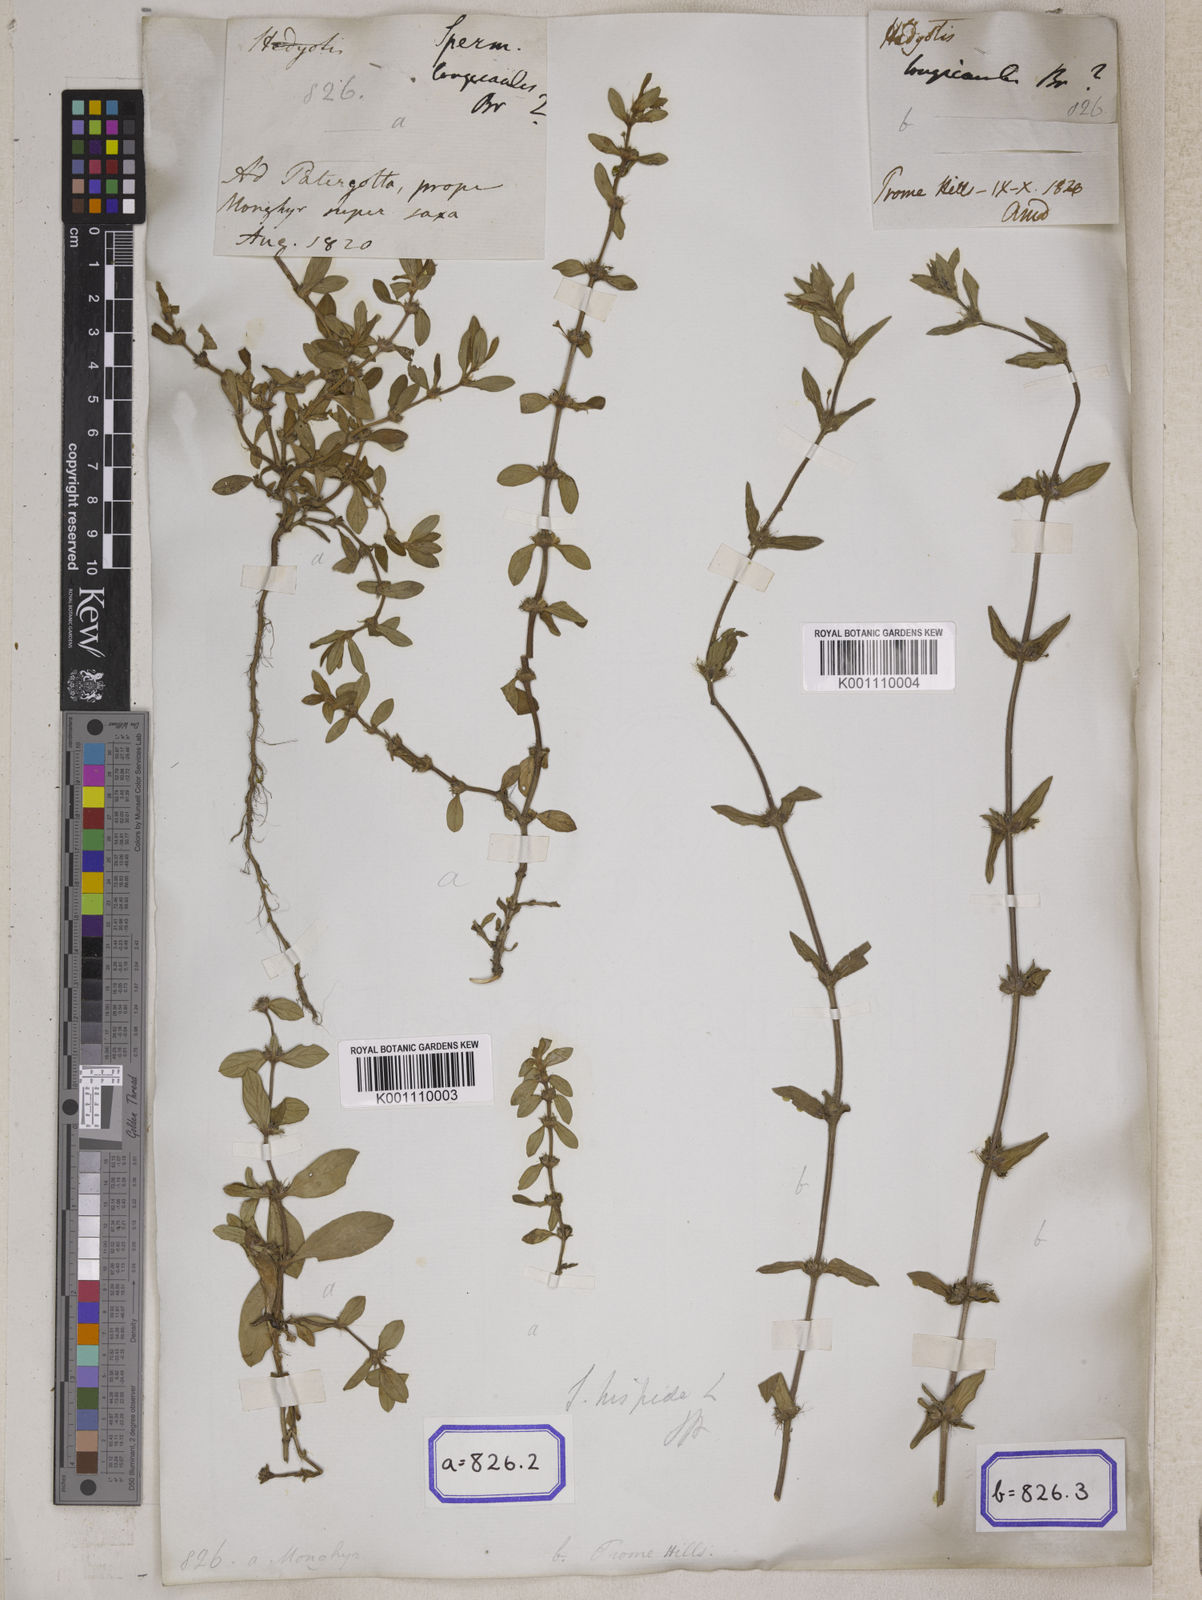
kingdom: Plantae
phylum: Tracheophyta
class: Magnoliopsida
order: Gentianales
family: Rubiaceae
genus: Spermacoce
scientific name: Spermacoce
